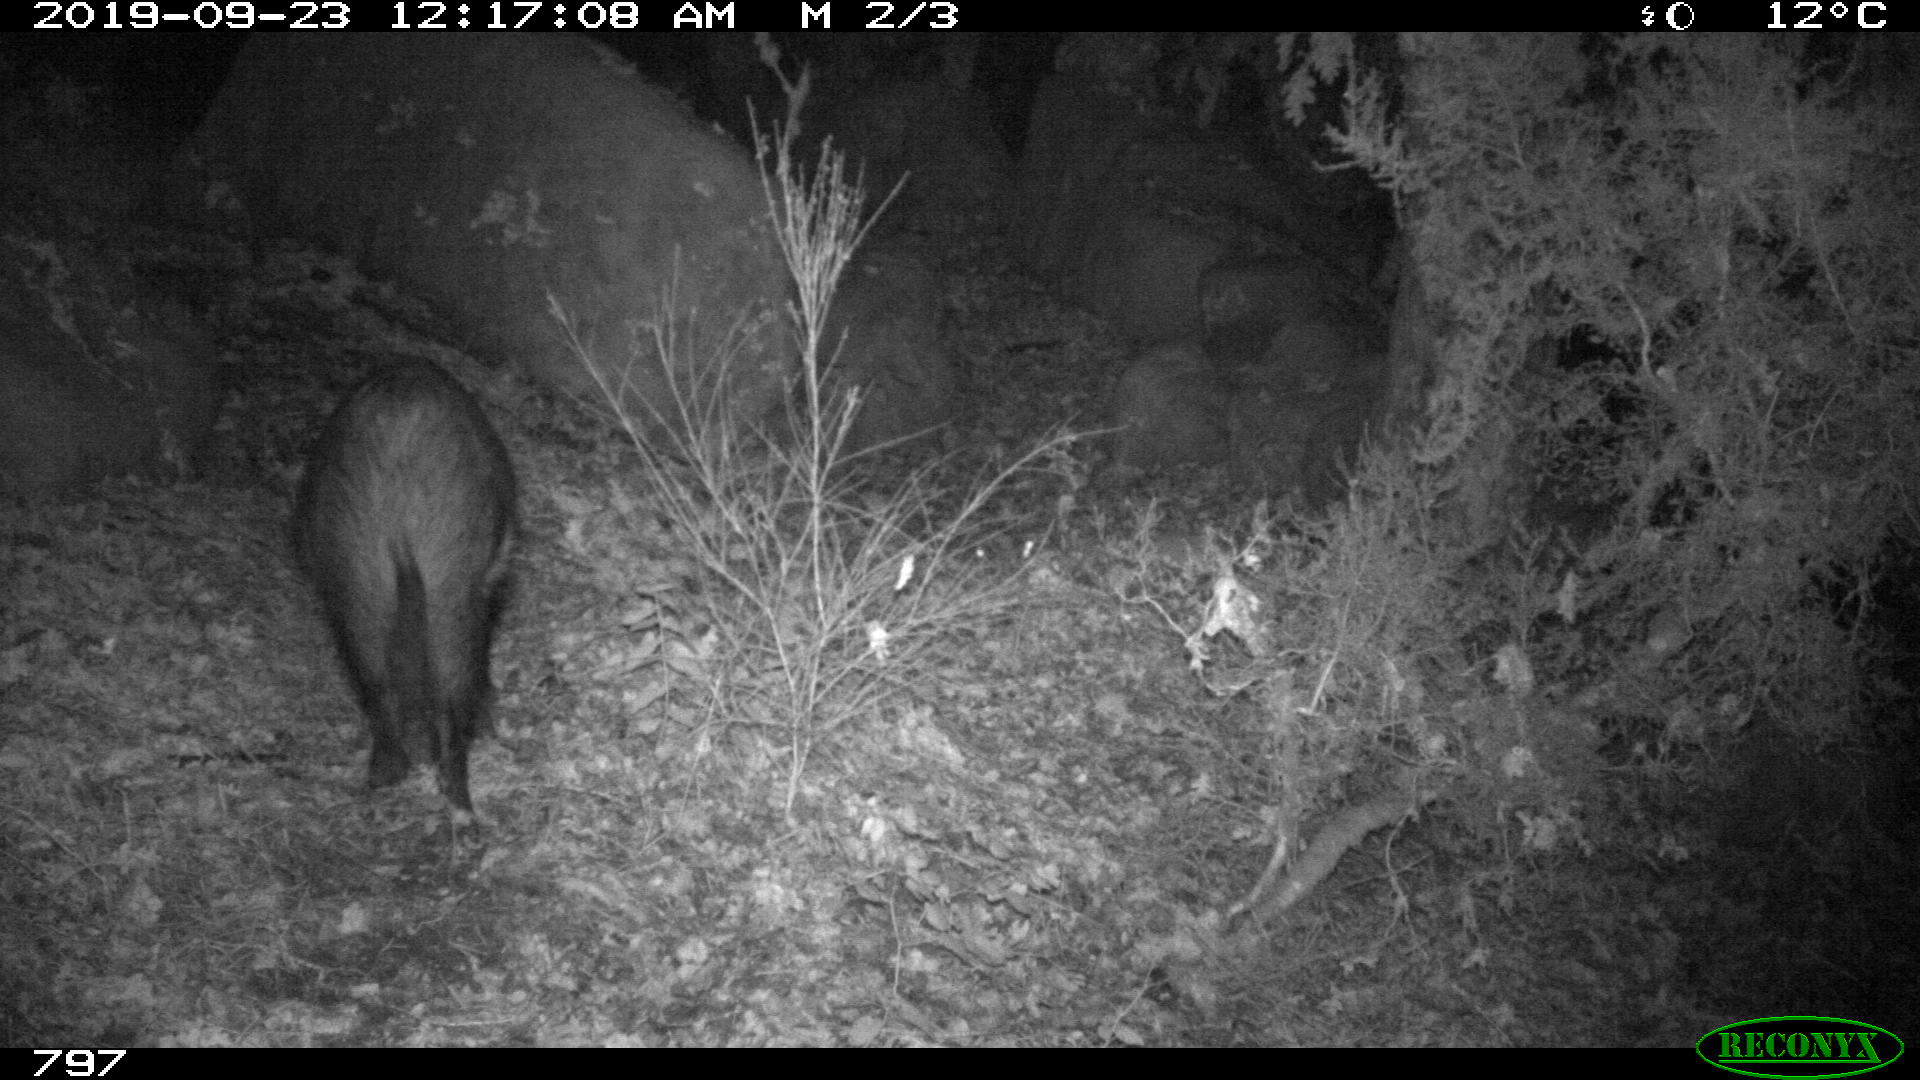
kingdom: Animalia
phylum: Chordata
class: Mammalia
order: Artiodactyla
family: Suidae
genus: Sus
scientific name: Sus scrofa
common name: Wild boar
